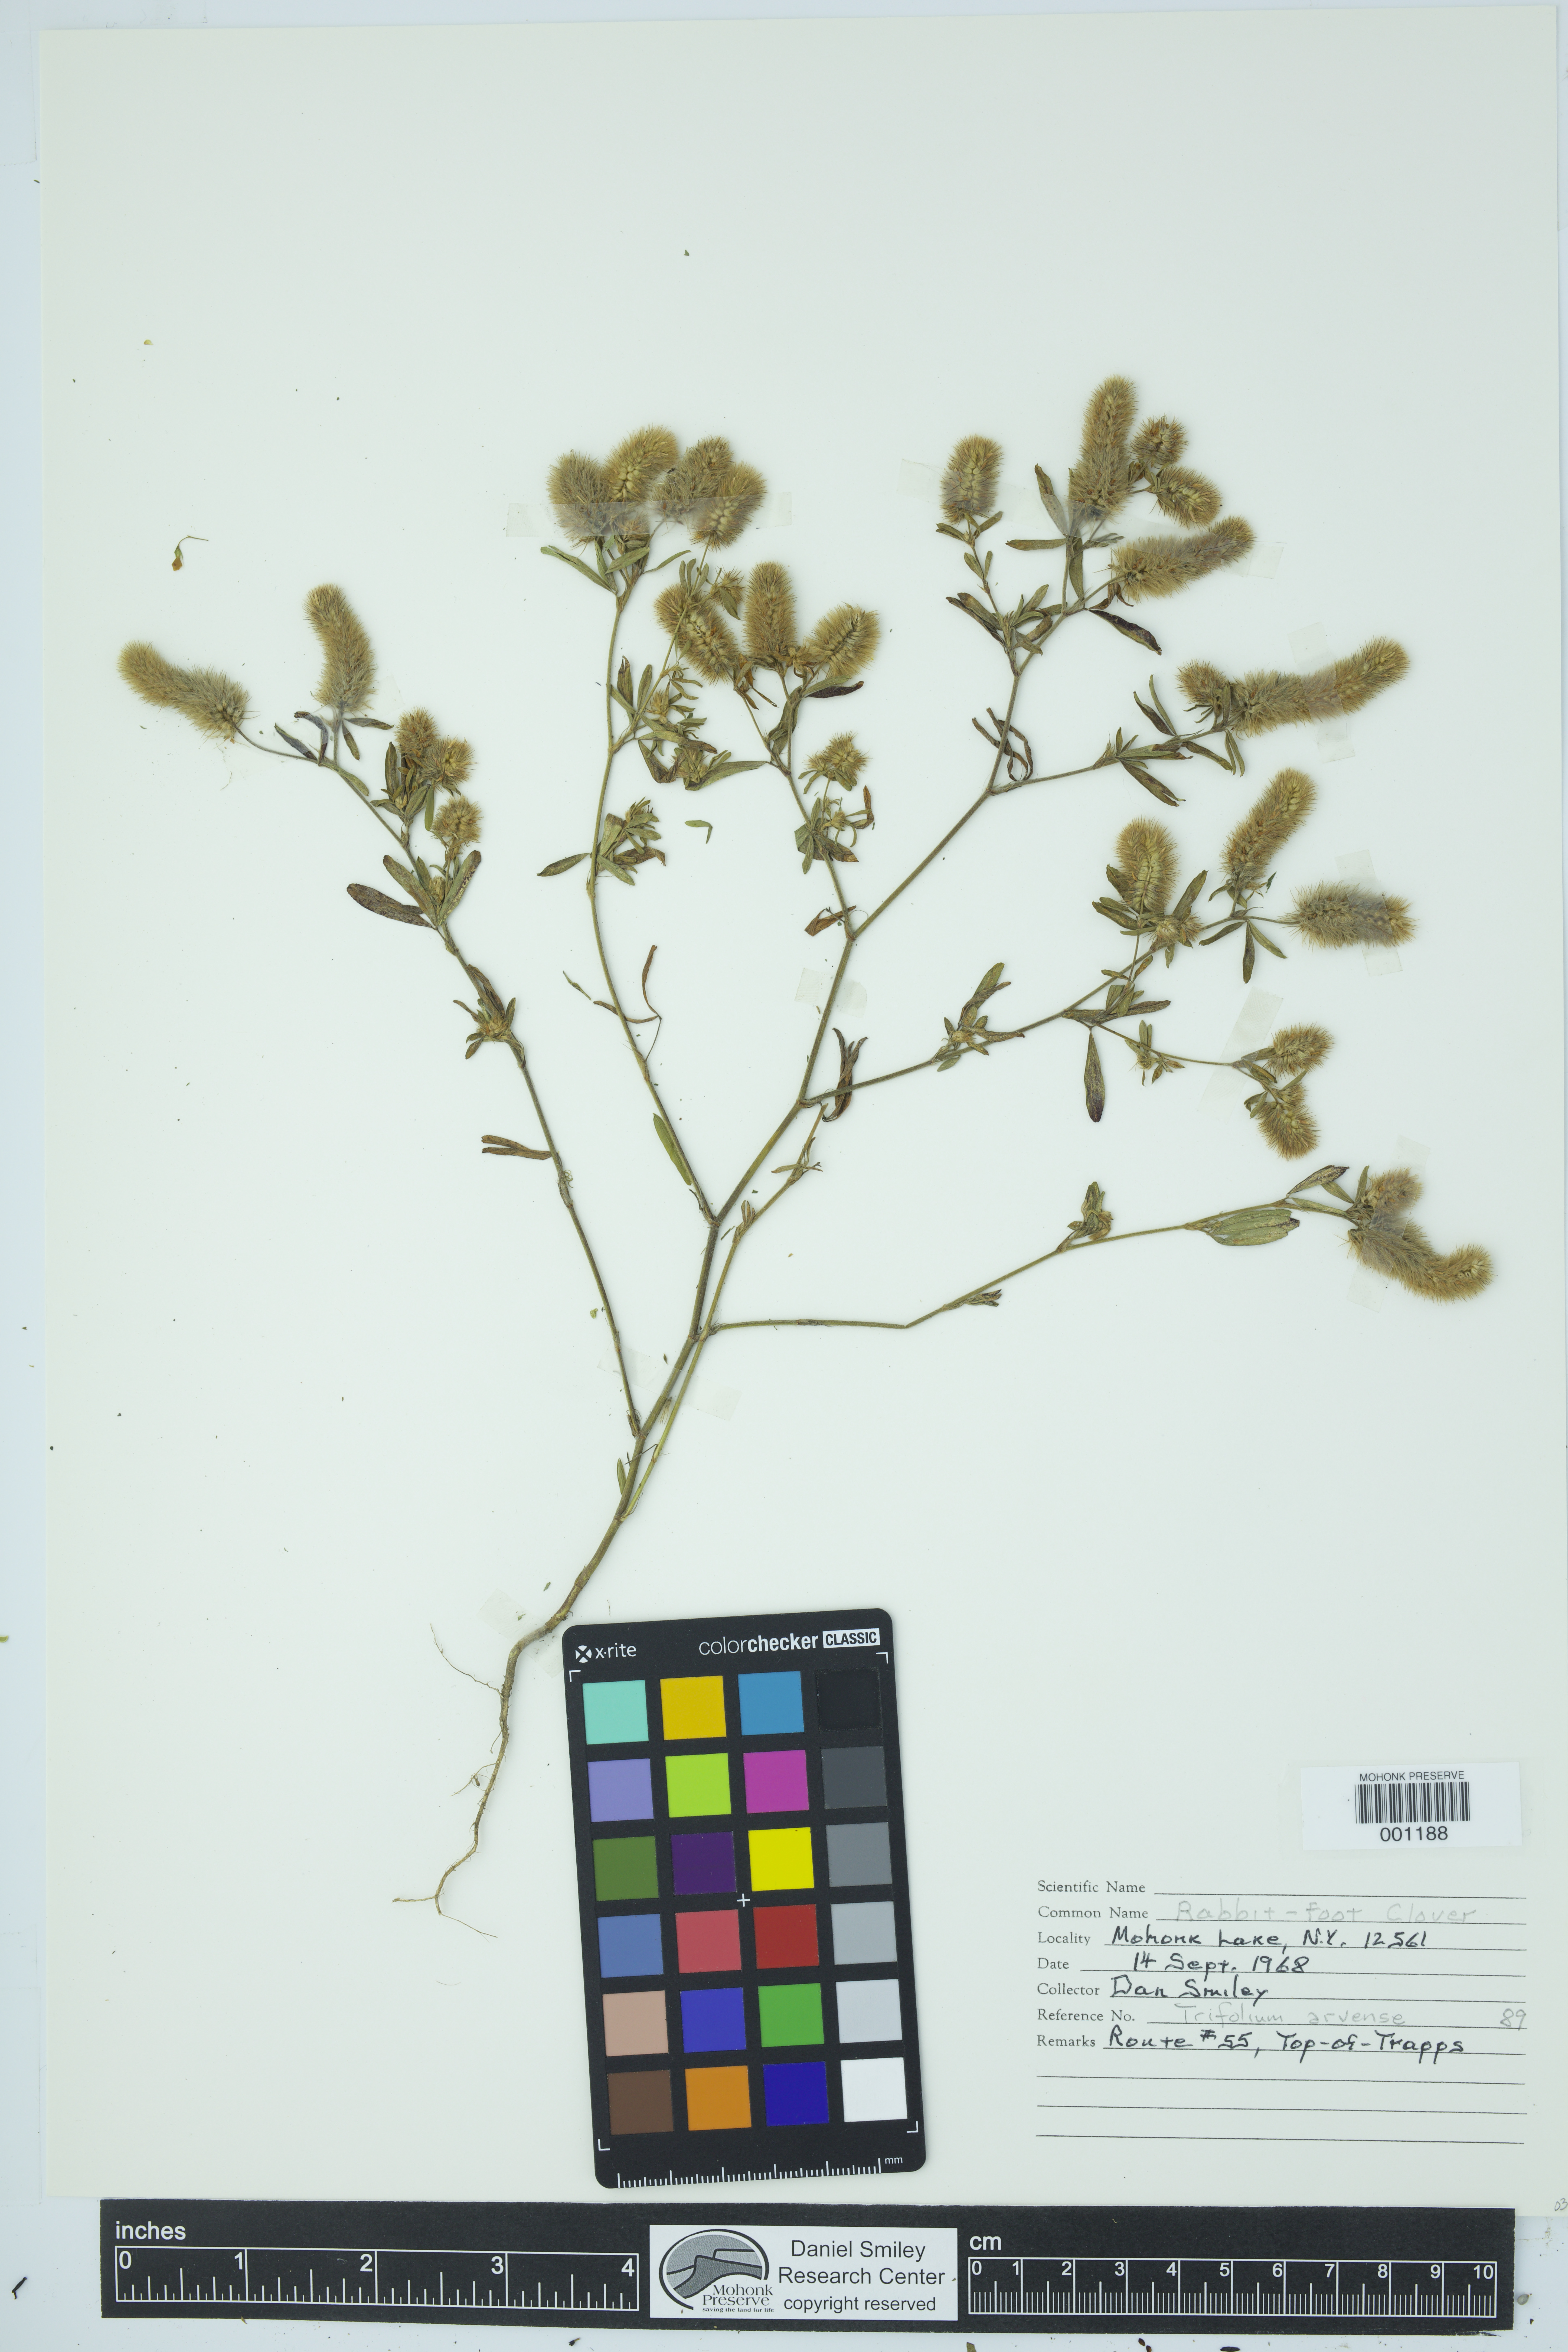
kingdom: Plantae
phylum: Tracheophyta
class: Magnoliopsida
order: Fabales
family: Fabaceae
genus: Trifolium
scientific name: Trifolium arvense
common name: Hare's-foot clover
